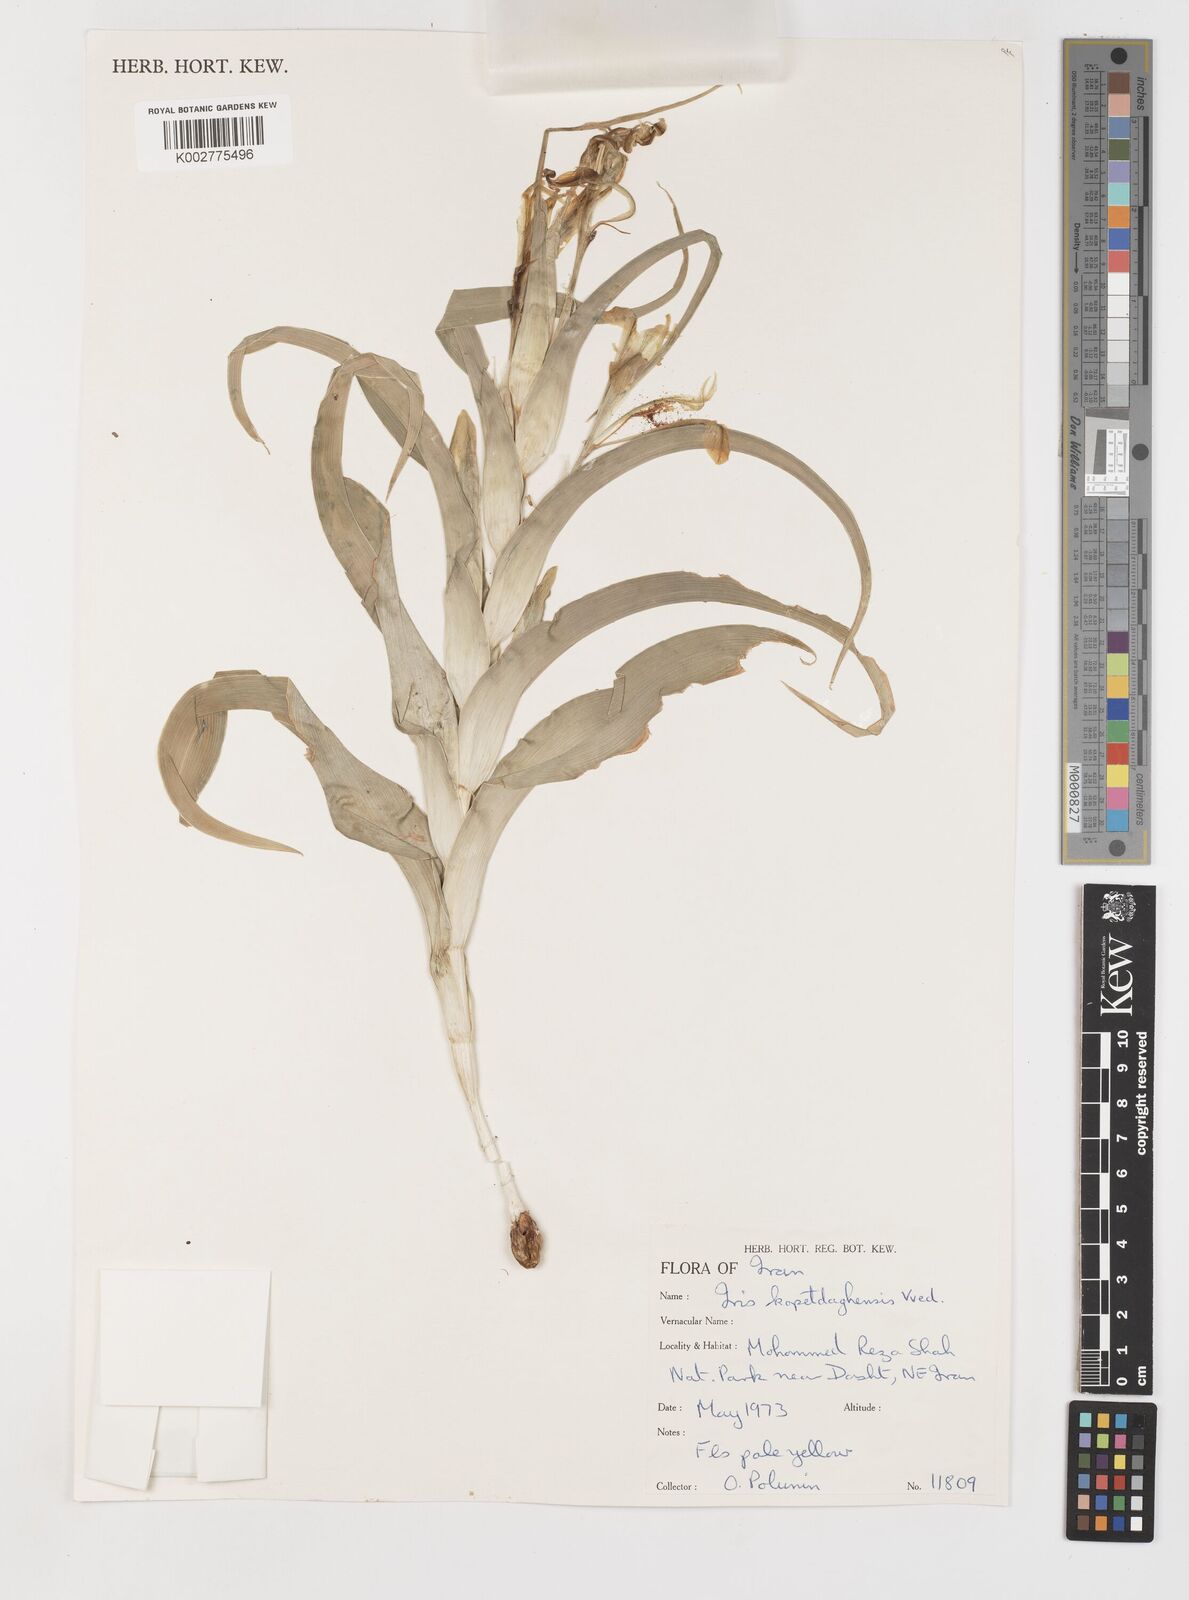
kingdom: Plantae
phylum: Tracheophyta
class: Liliopsida
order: Asparagales
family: Iridaceae
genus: Iris
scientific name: Iris kopetdagensis
